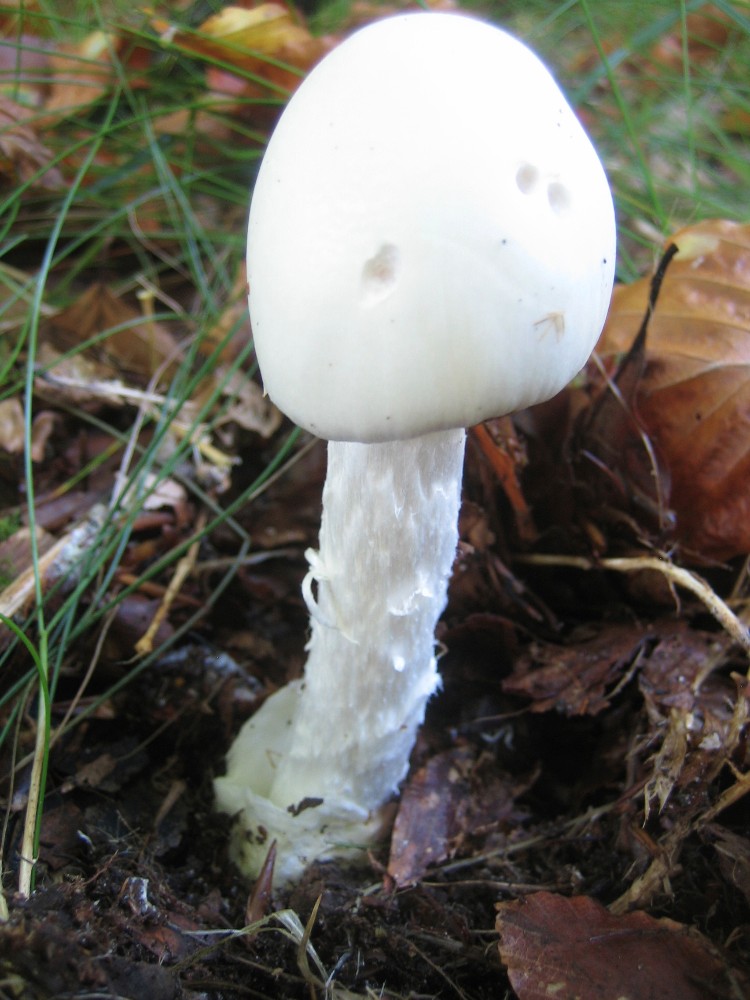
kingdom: Fungi
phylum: Basidiomycota
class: Agaricomycetes
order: Agaricales
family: Amanitaceae
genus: Amanita
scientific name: Amanita virosa
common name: snehvid fluesvamp
